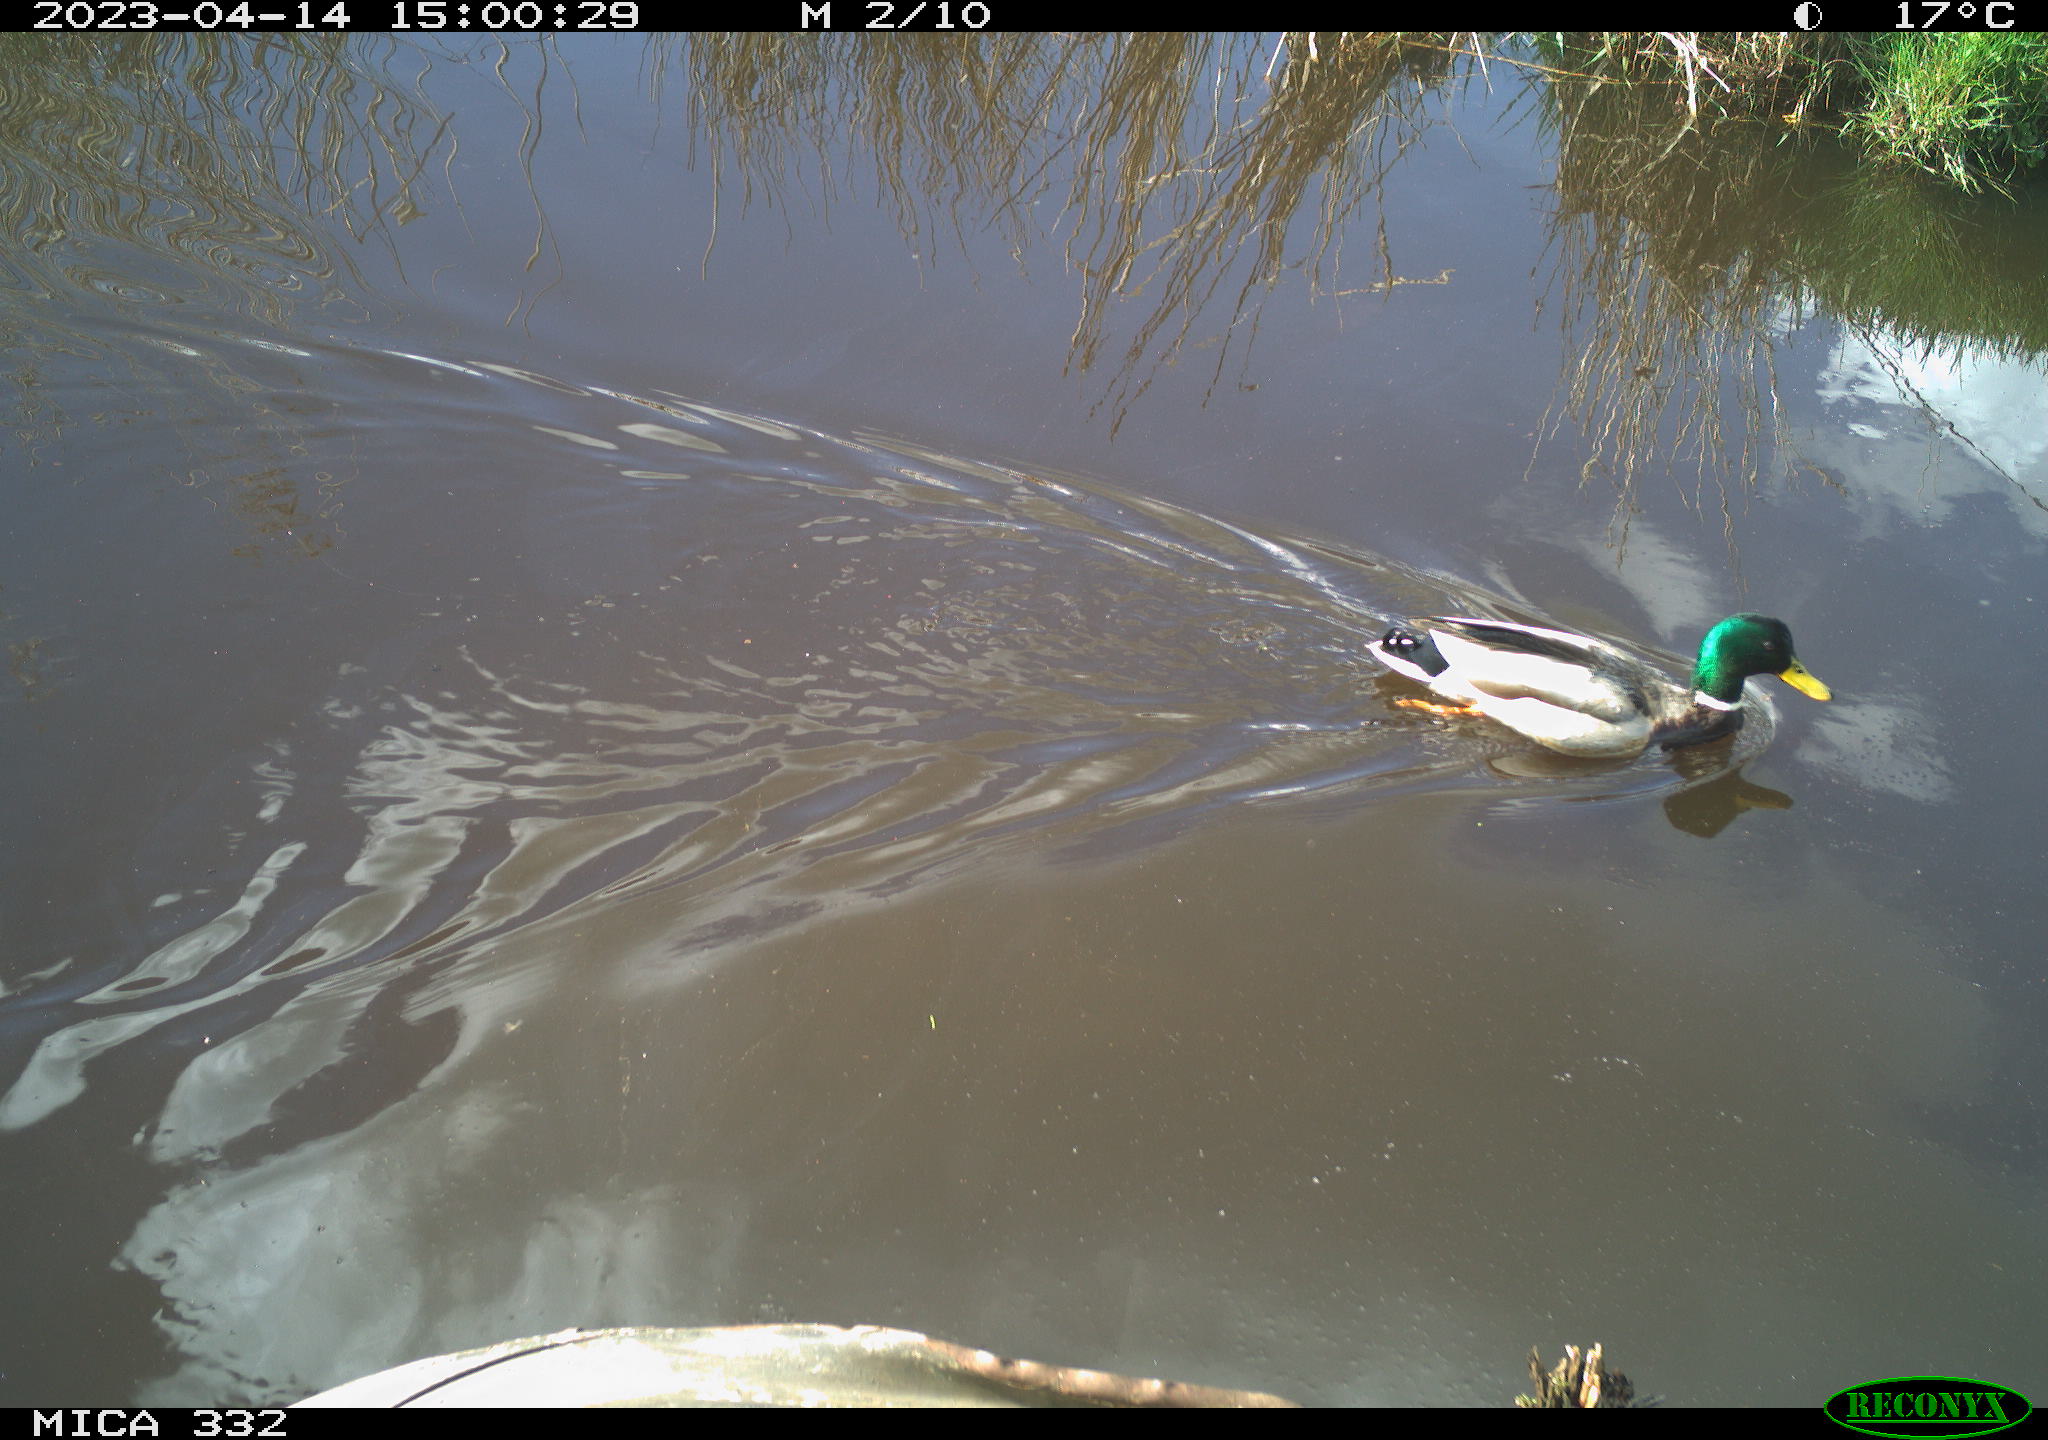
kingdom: Animalia
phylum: Chordata
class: Aves
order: Anseriformes
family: Anatidae
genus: Anas
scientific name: Anas
